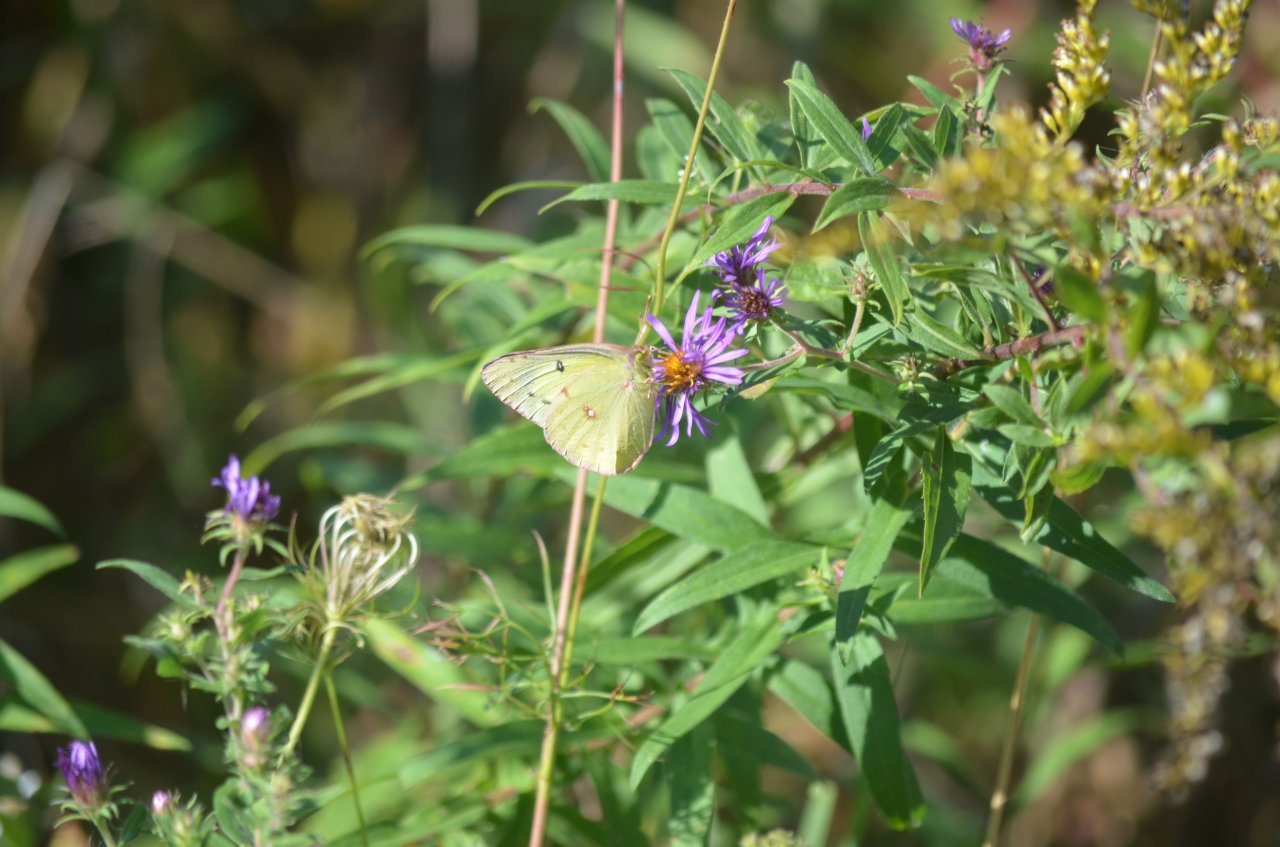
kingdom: Animalia
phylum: Arthropoda
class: Insecta
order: Lepidoptera
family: Pieridae
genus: Colias
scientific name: Colias philodice
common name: Clouded Sulphur
